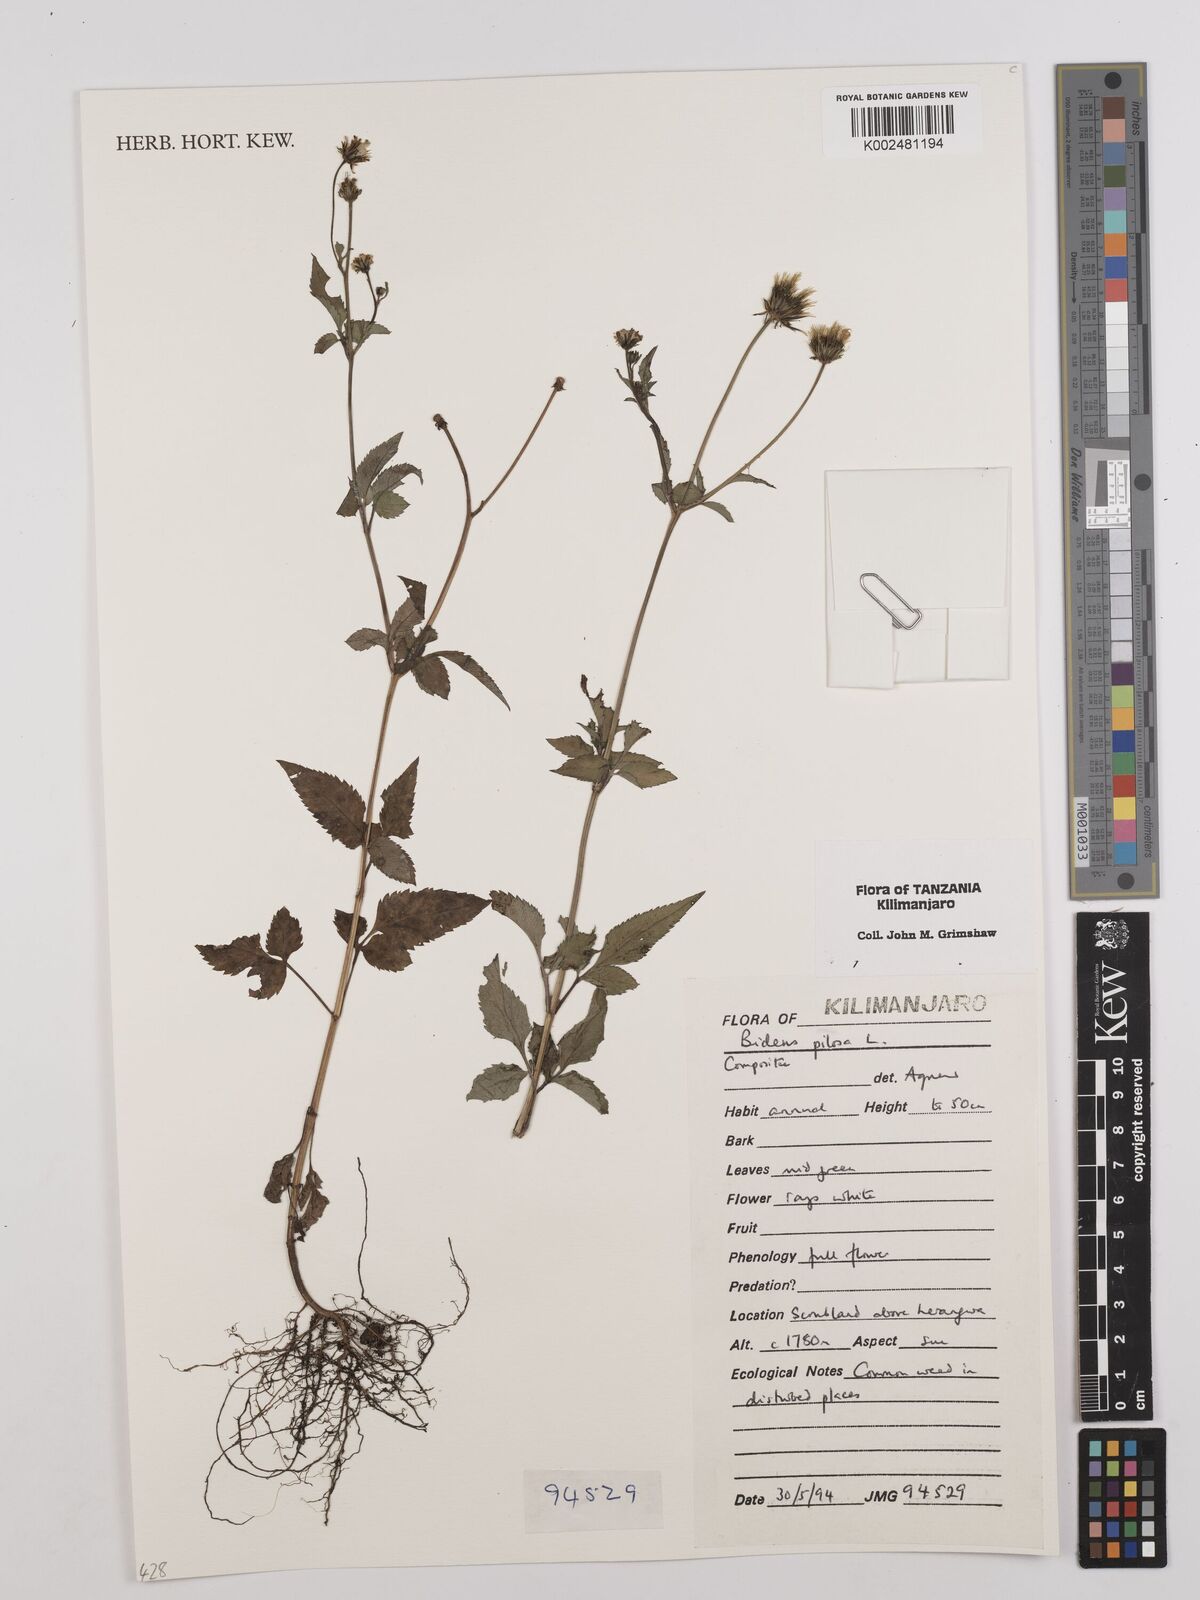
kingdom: Plantae
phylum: Tracheophyta
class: Magnoliopsida
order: Asterales
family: Asteraceae
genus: Bidens
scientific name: Bidens pilosa
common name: Black-jack
